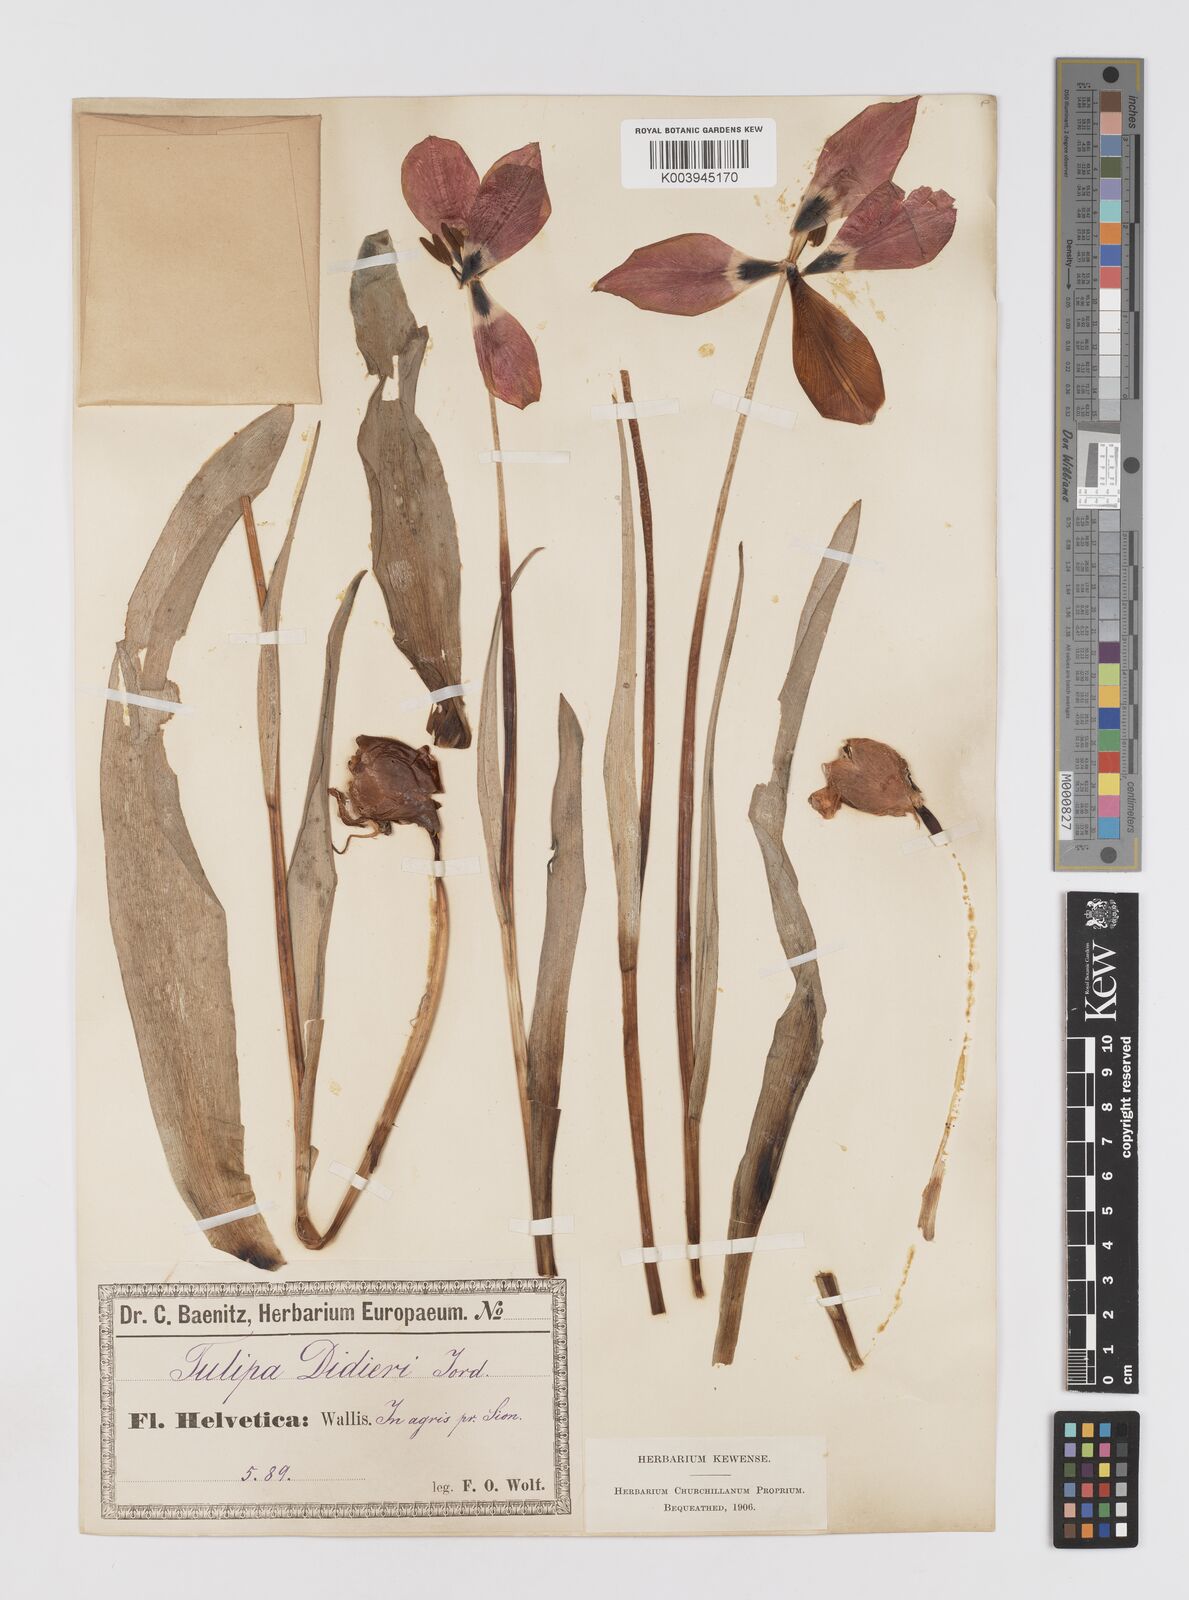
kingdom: Plantae
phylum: Tracheophyta
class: Liliopsida
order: Liliales
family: Liliaceae
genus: Tulipa
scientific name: Tulipa gesneriana
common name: Garden tulip
